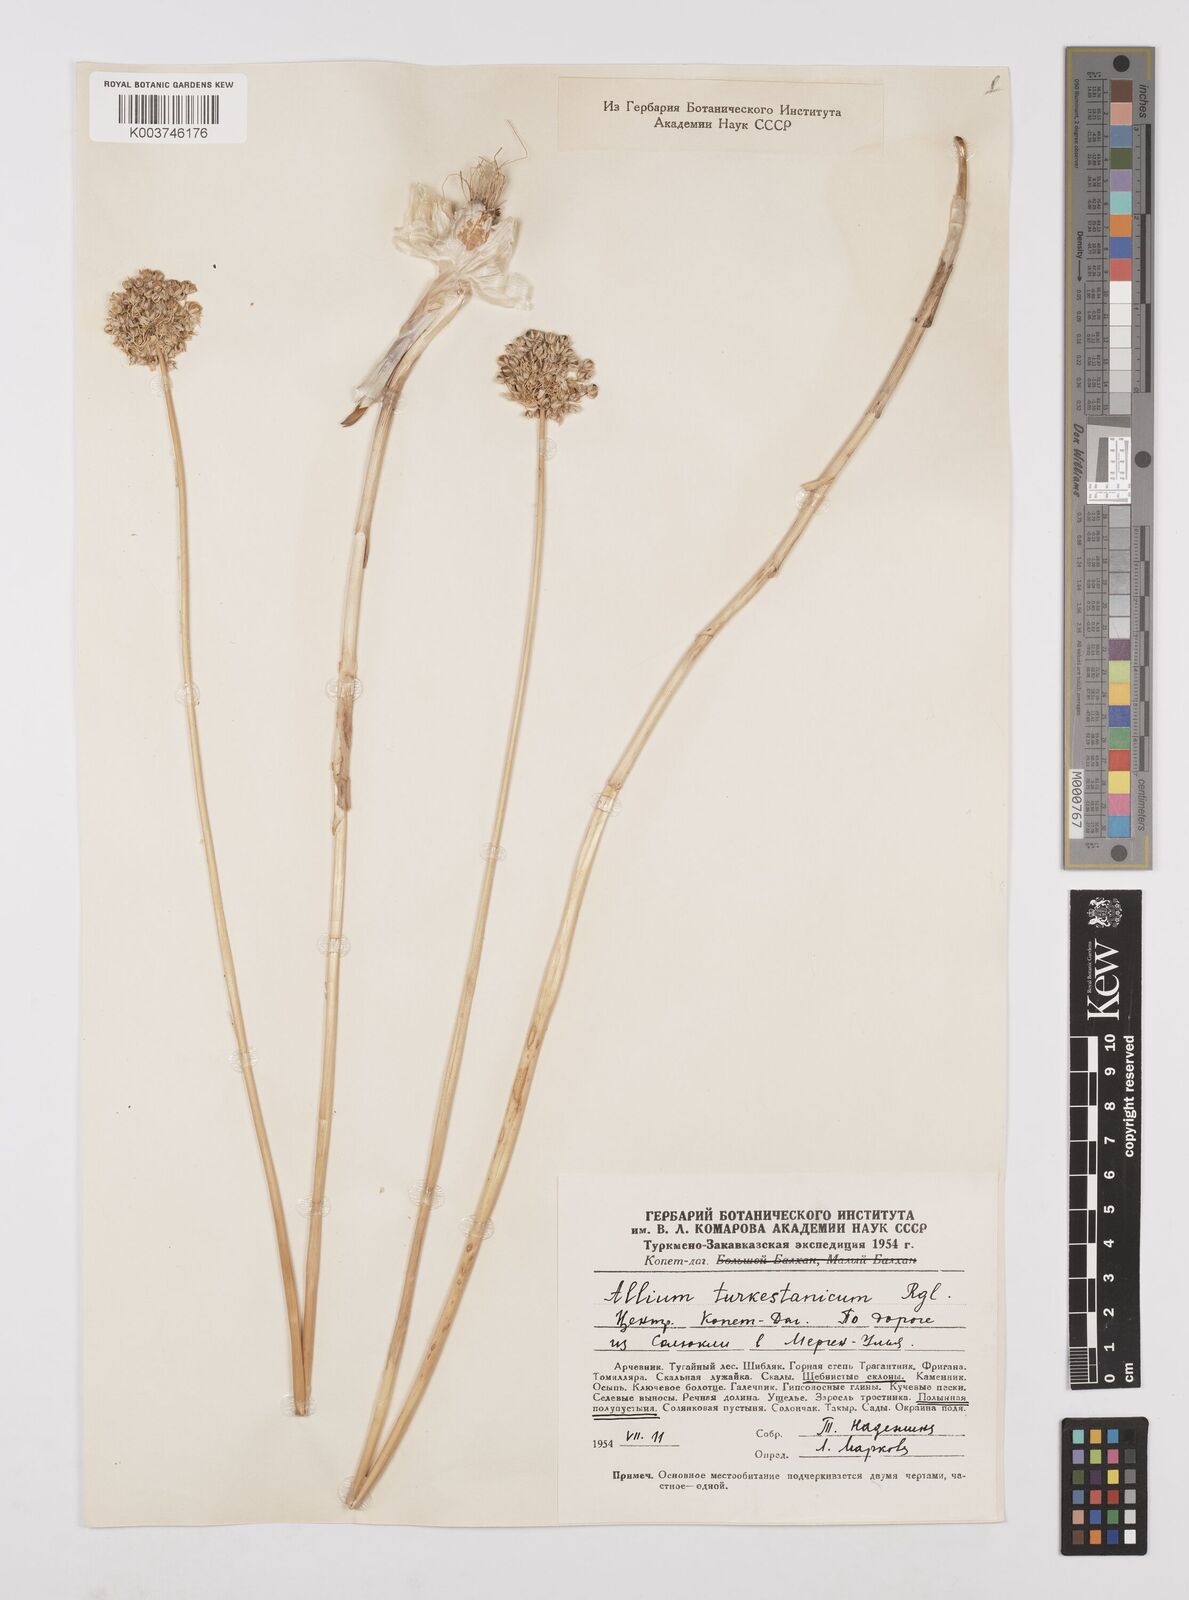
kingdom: Plantae
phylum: Tracheophyta
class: Liliopsida
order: Asparagales
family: Amaryllidaceae
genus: Allium
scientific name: Allium lehmannianum
